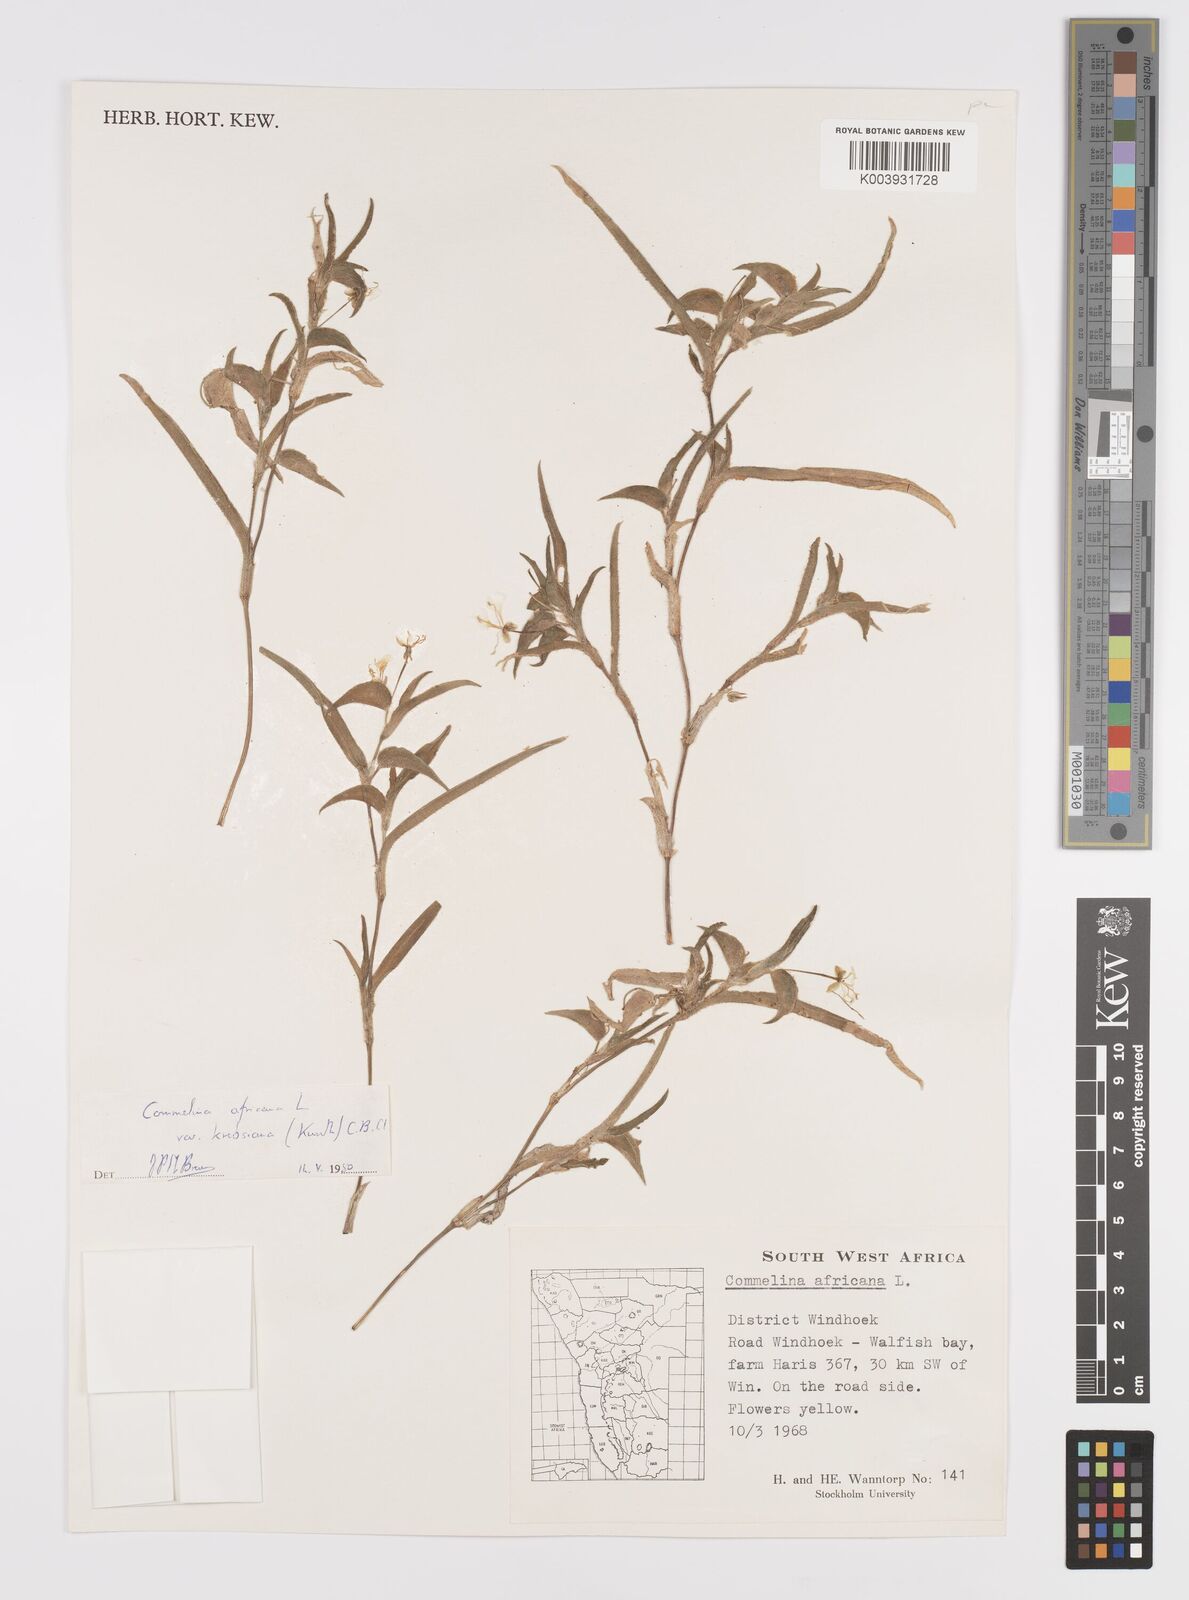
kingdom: Plantae
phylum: Tracheophyta
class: Liliopsida
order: Commelinales
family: Commelinaceae
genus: Commelina
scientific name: Commelina africana
